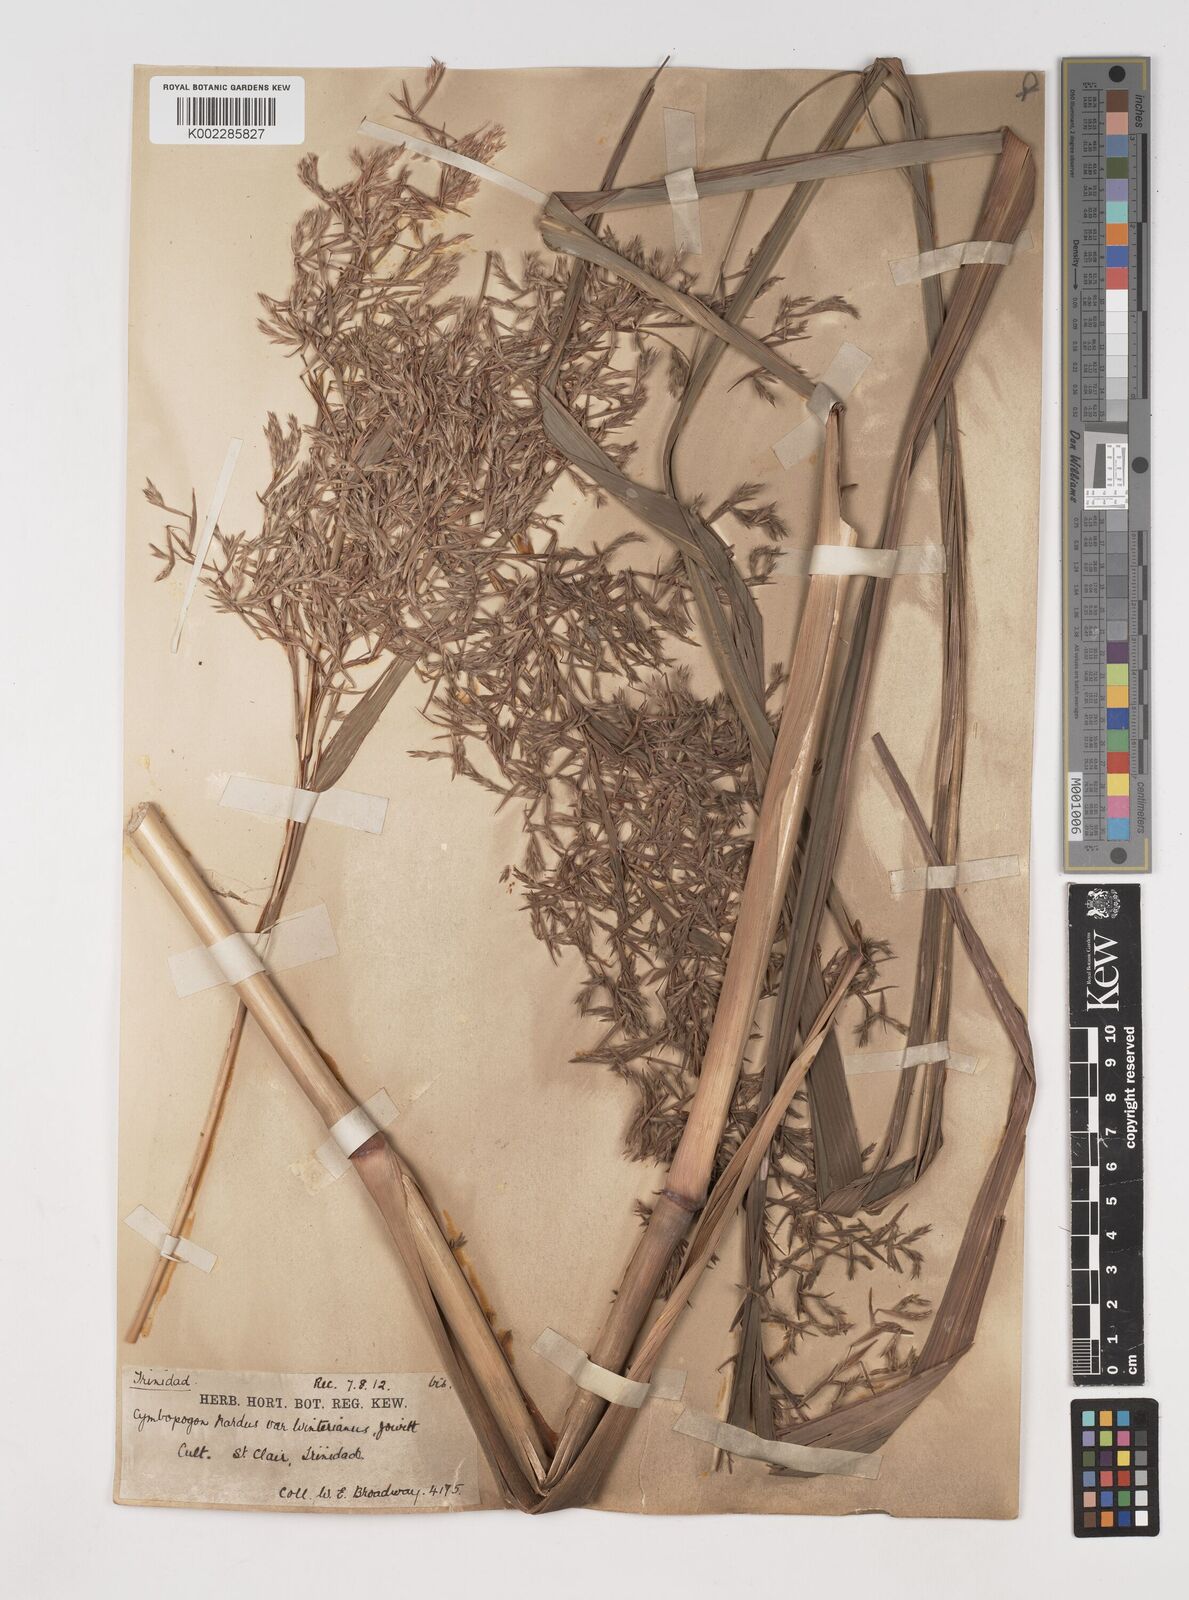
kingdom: Plantae
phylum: Tracheophyta
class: Liliopsida
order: Poales
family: Poaceae
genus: Cymbopogon
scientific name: Cymbopogon winterianus
